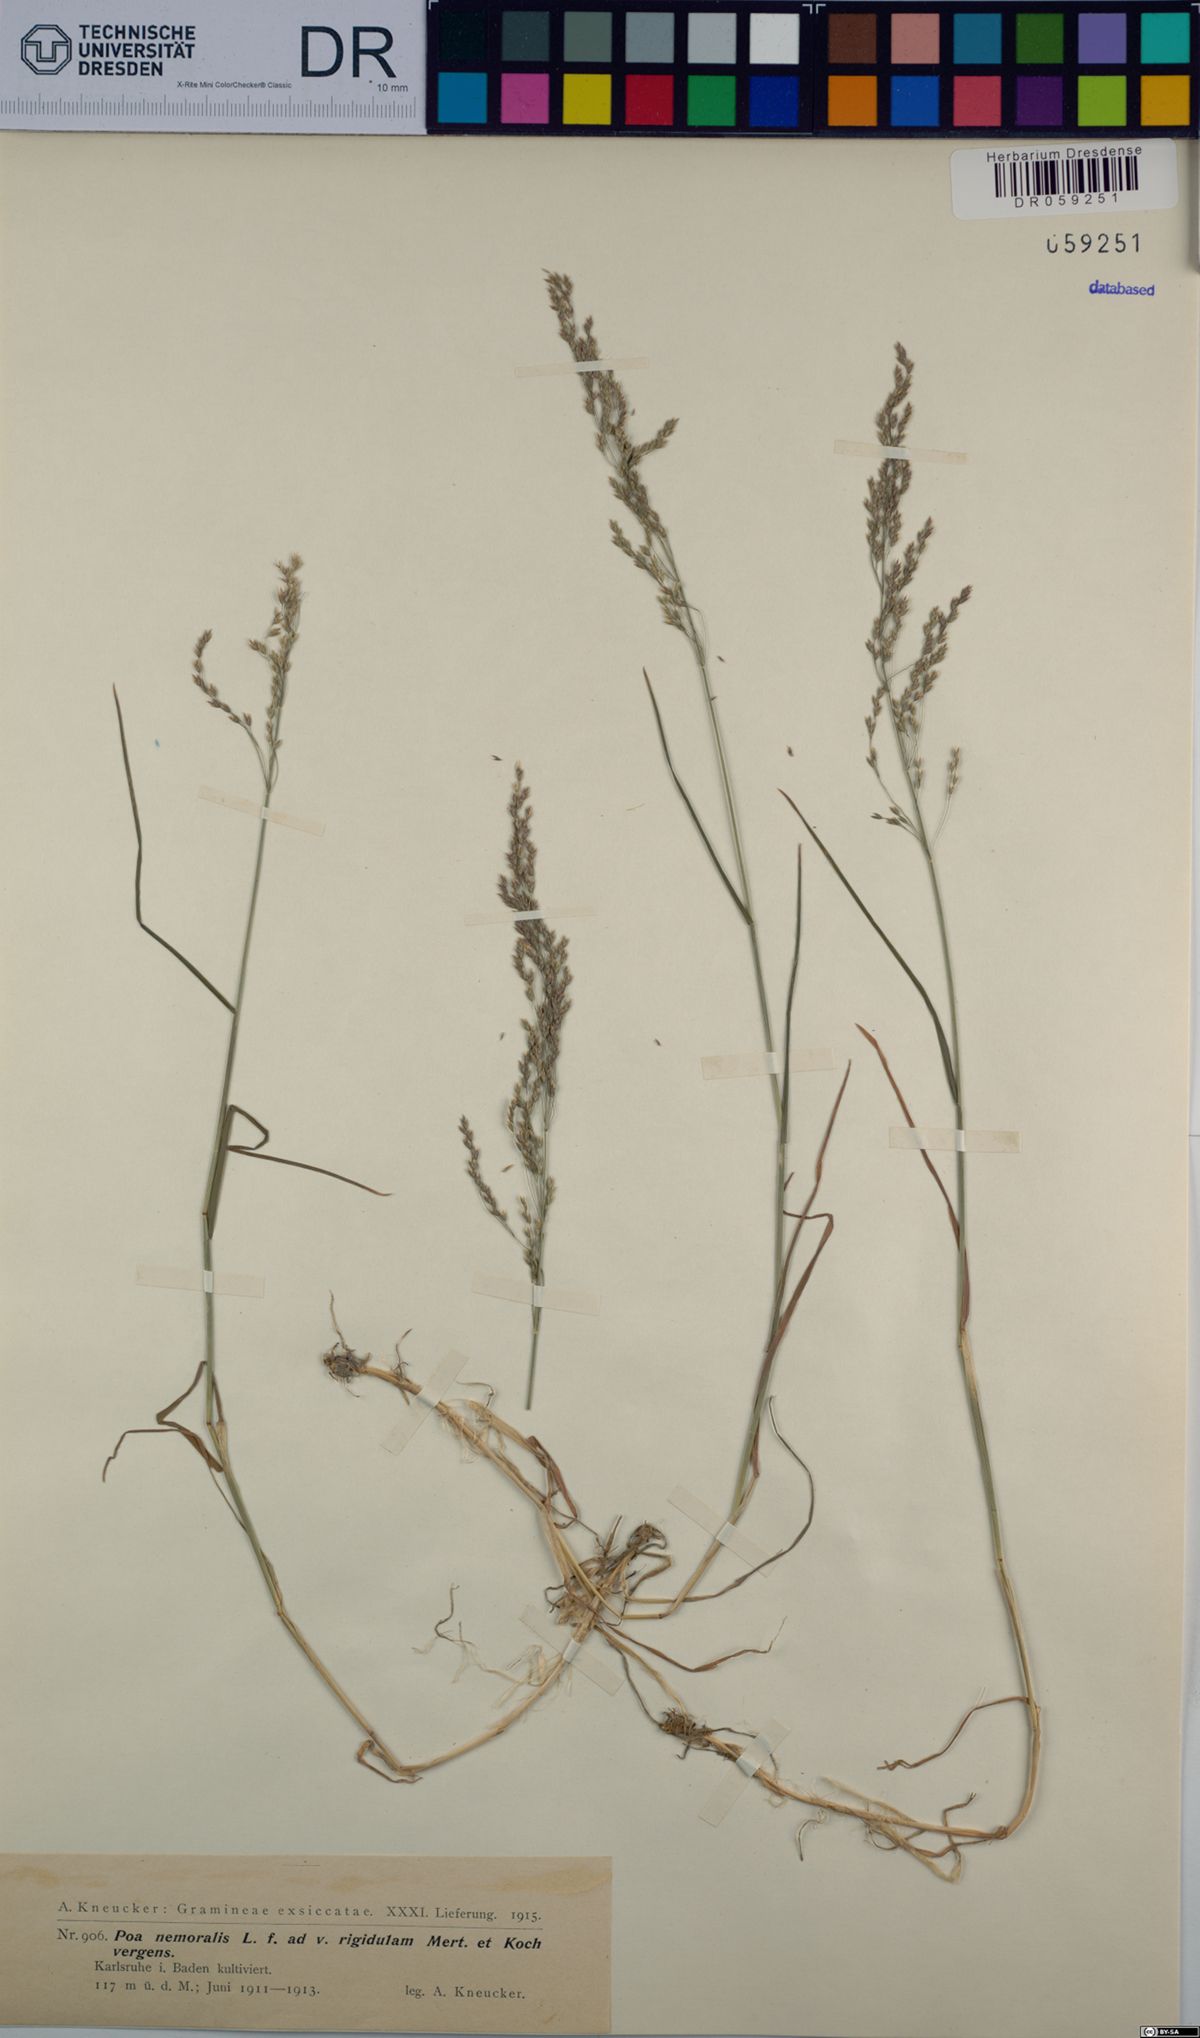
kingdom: Plantae
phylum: Tracheophyta
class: Liliopsida
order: Poales
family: Poaceae
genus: Poa
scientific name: Poa nemoralis
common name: Wood bluegrass
